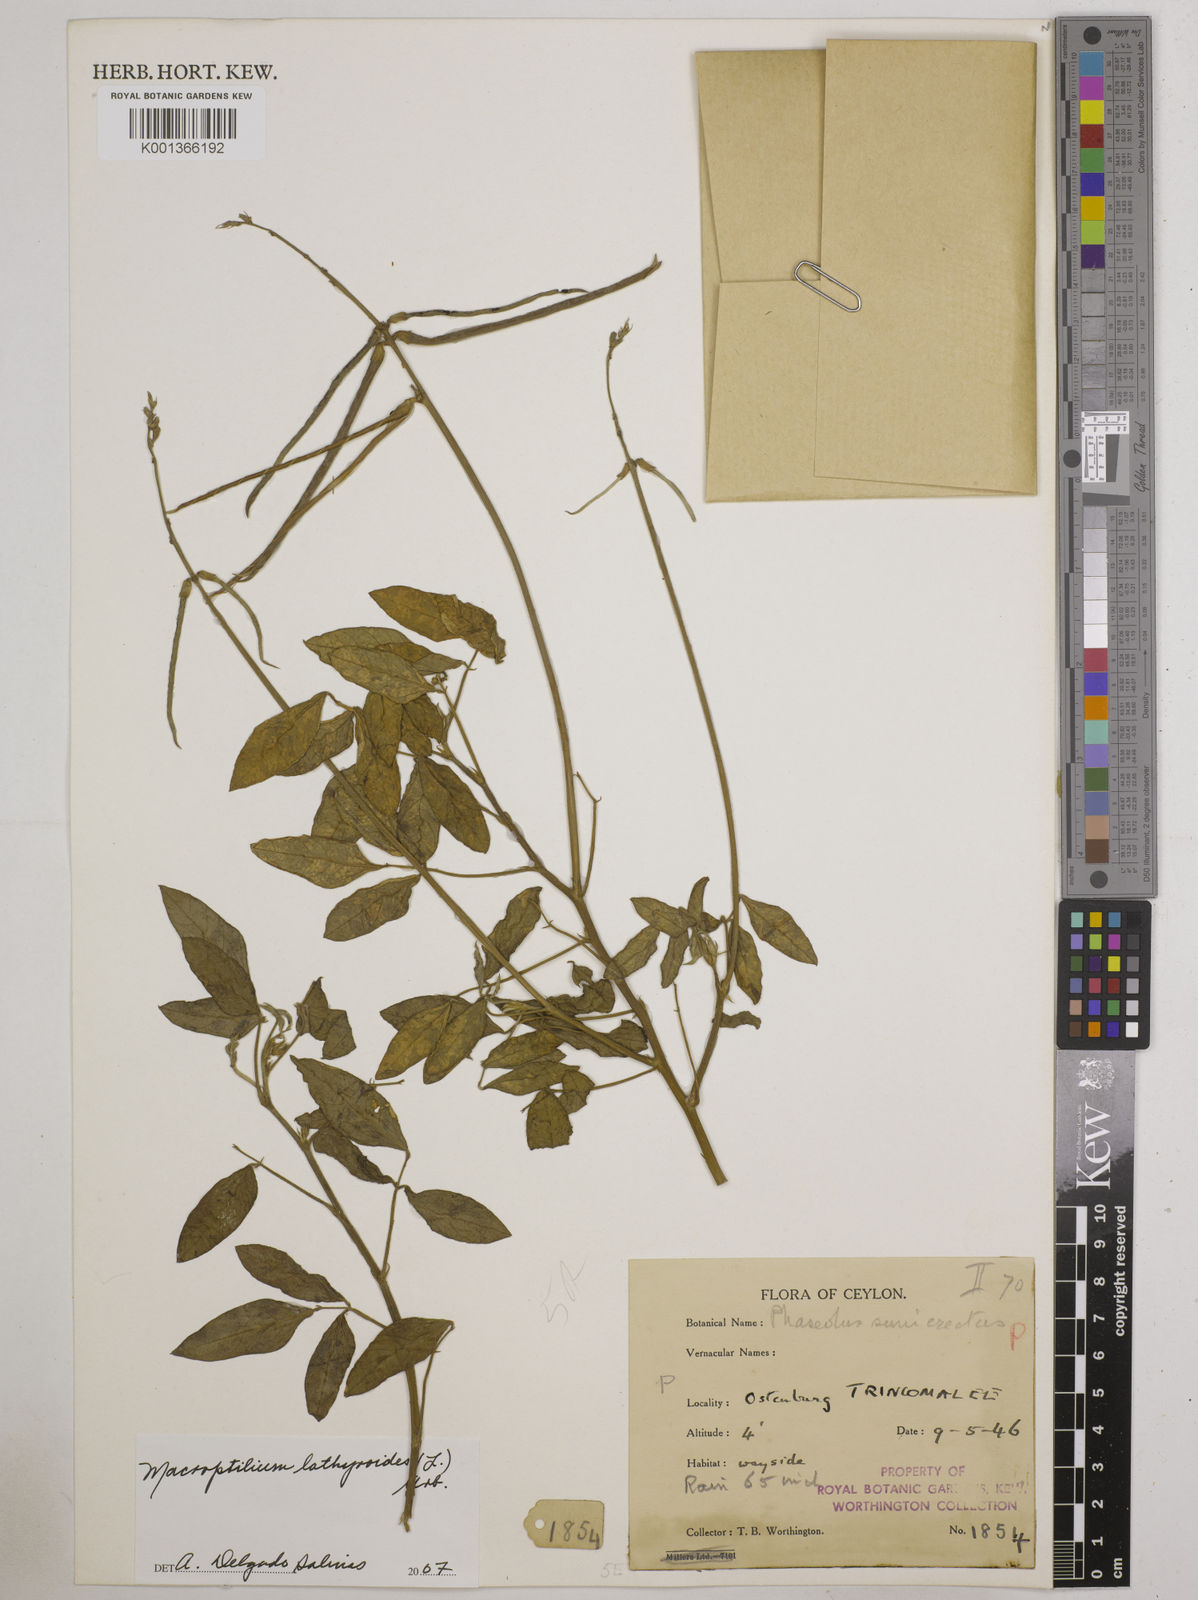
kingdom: Plantae
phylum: Tracheophyta
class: Magnoliopsida
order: Fabales
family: Fabaceae
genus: Macroptilium
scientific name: Macroptilium
